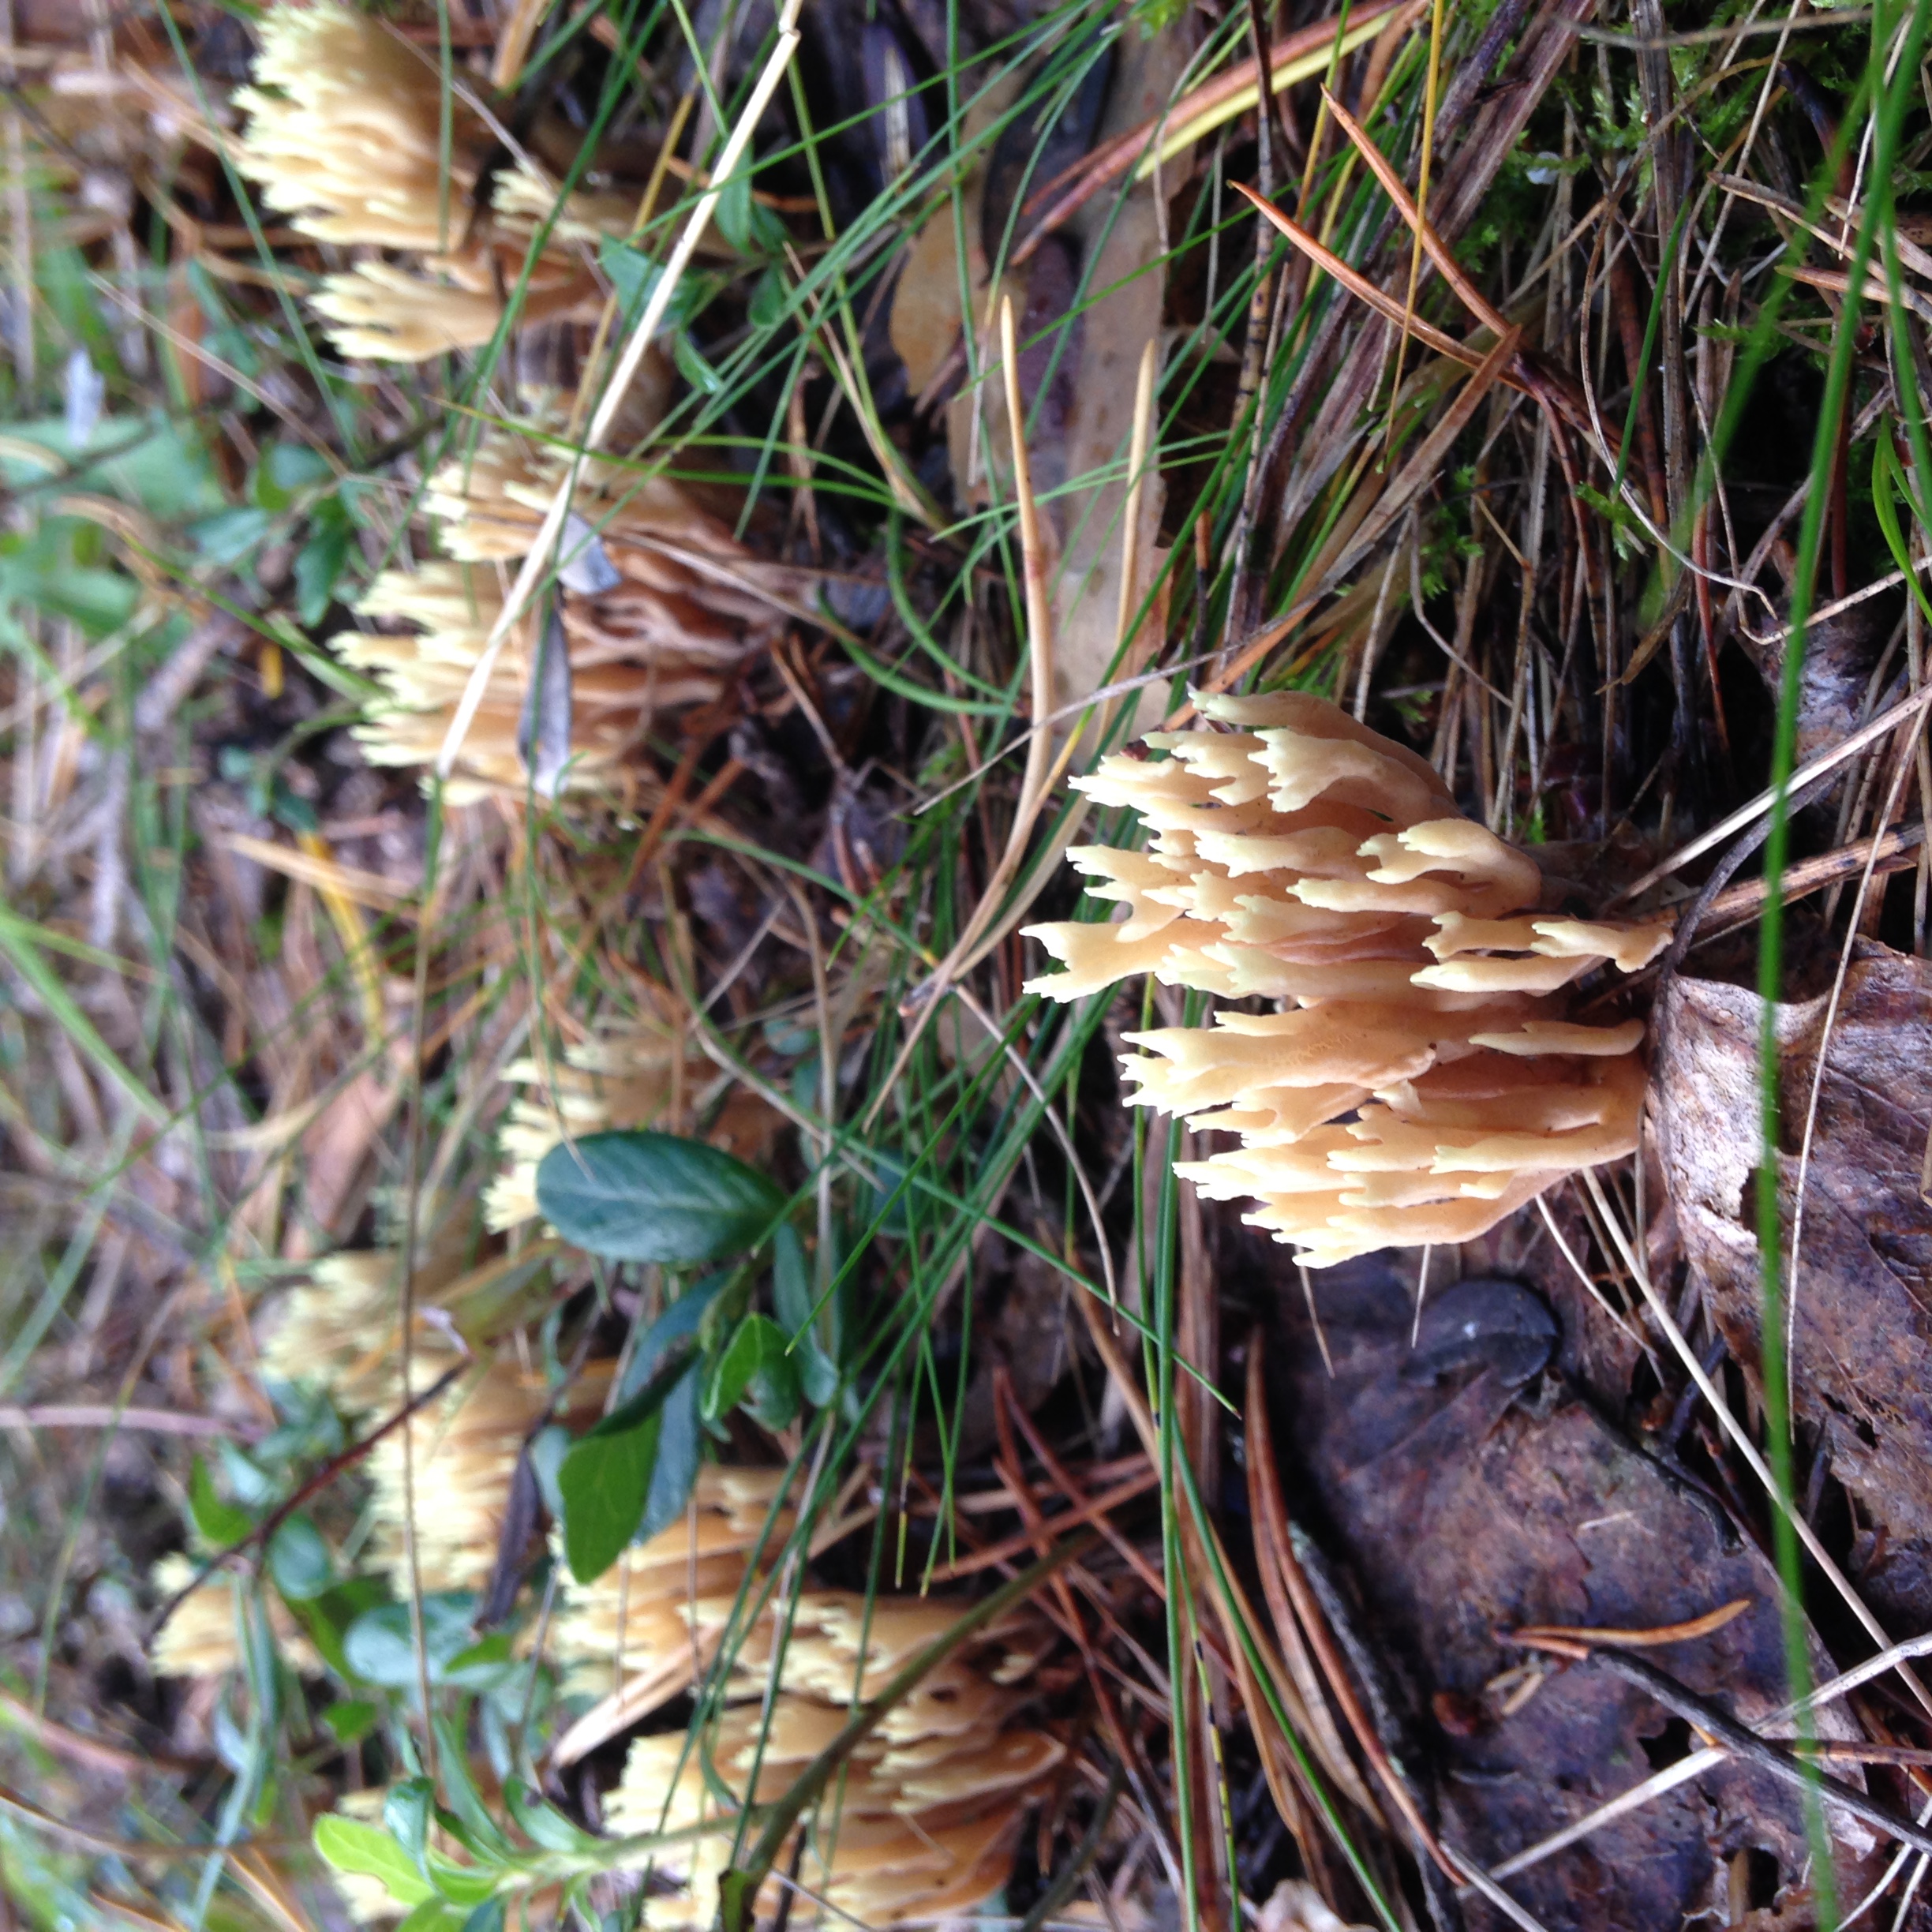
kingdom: Fungi
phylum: Basidiomycota
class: Agaricomycetes
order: Gomphales
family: Gomphaceae
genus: Ramaria
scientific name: Ramaria testaceoflava
